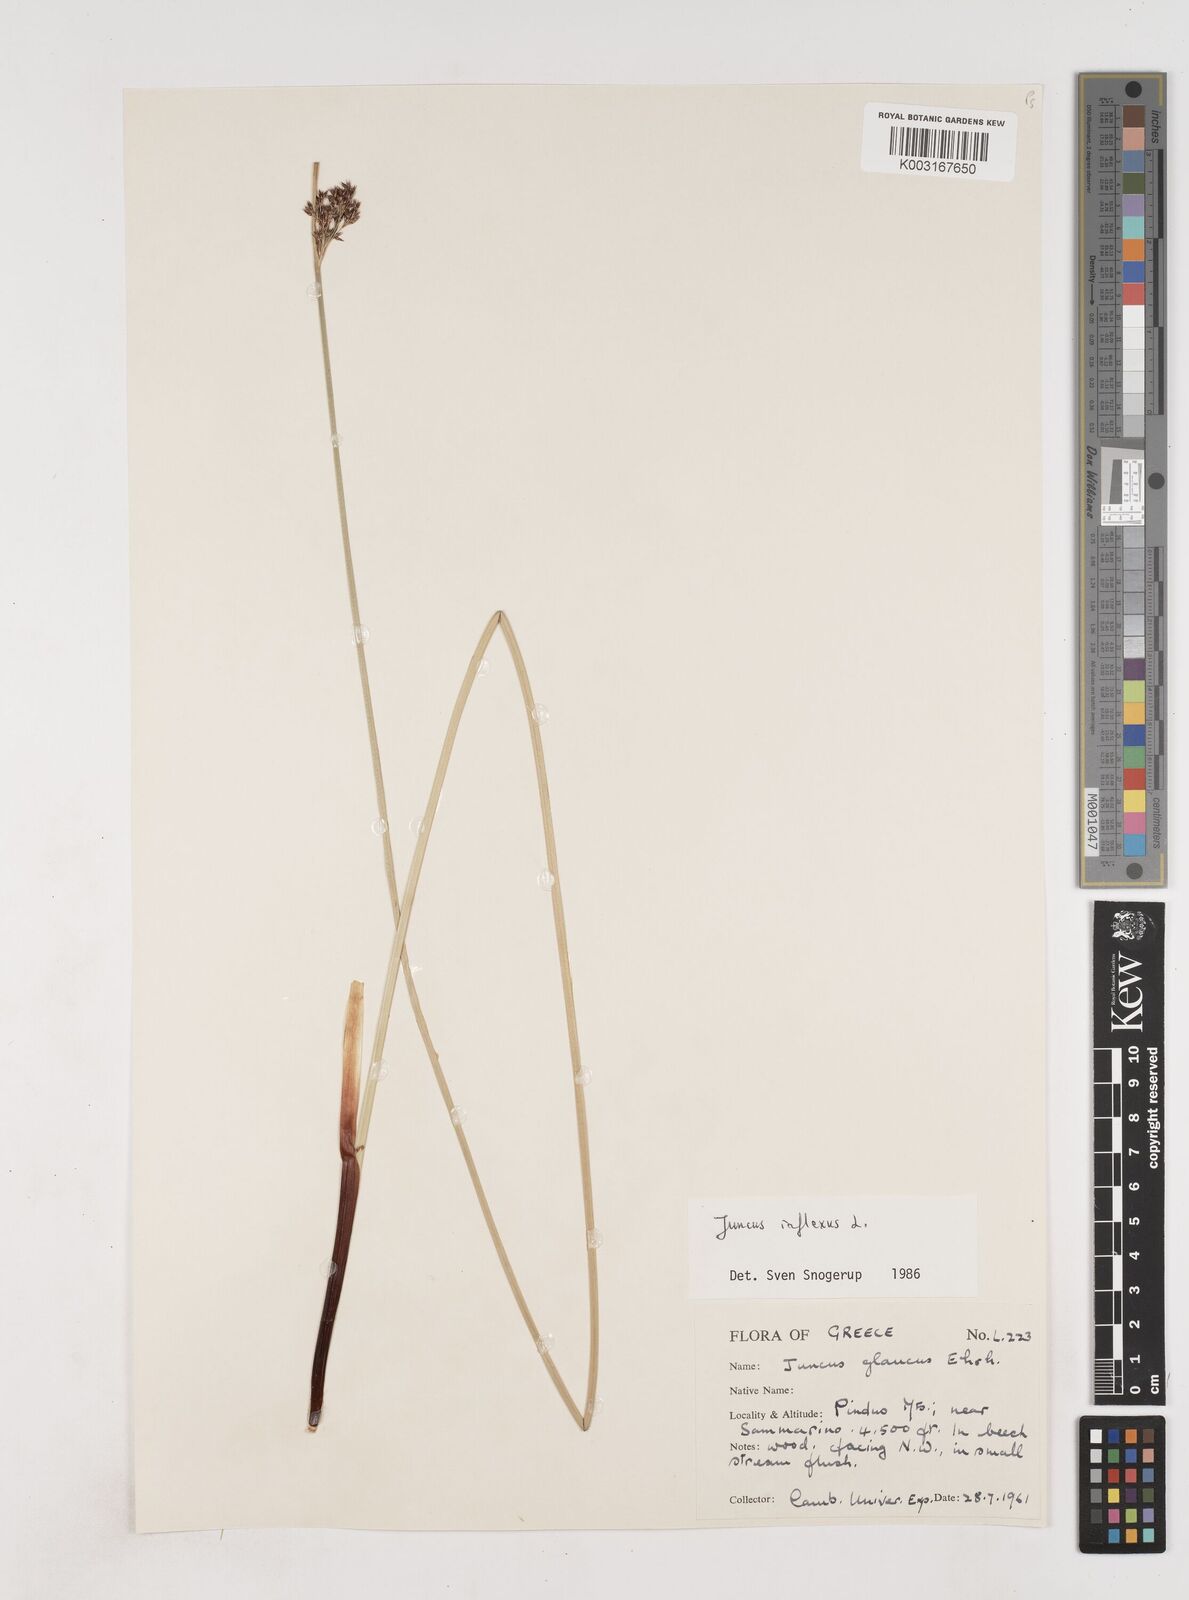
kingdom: Plantae
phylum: Tracheophyta
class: Liliopsida
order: Poales
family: Juncaceae
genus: Juncus
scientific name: Juncus inflexus
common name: Hard rush
